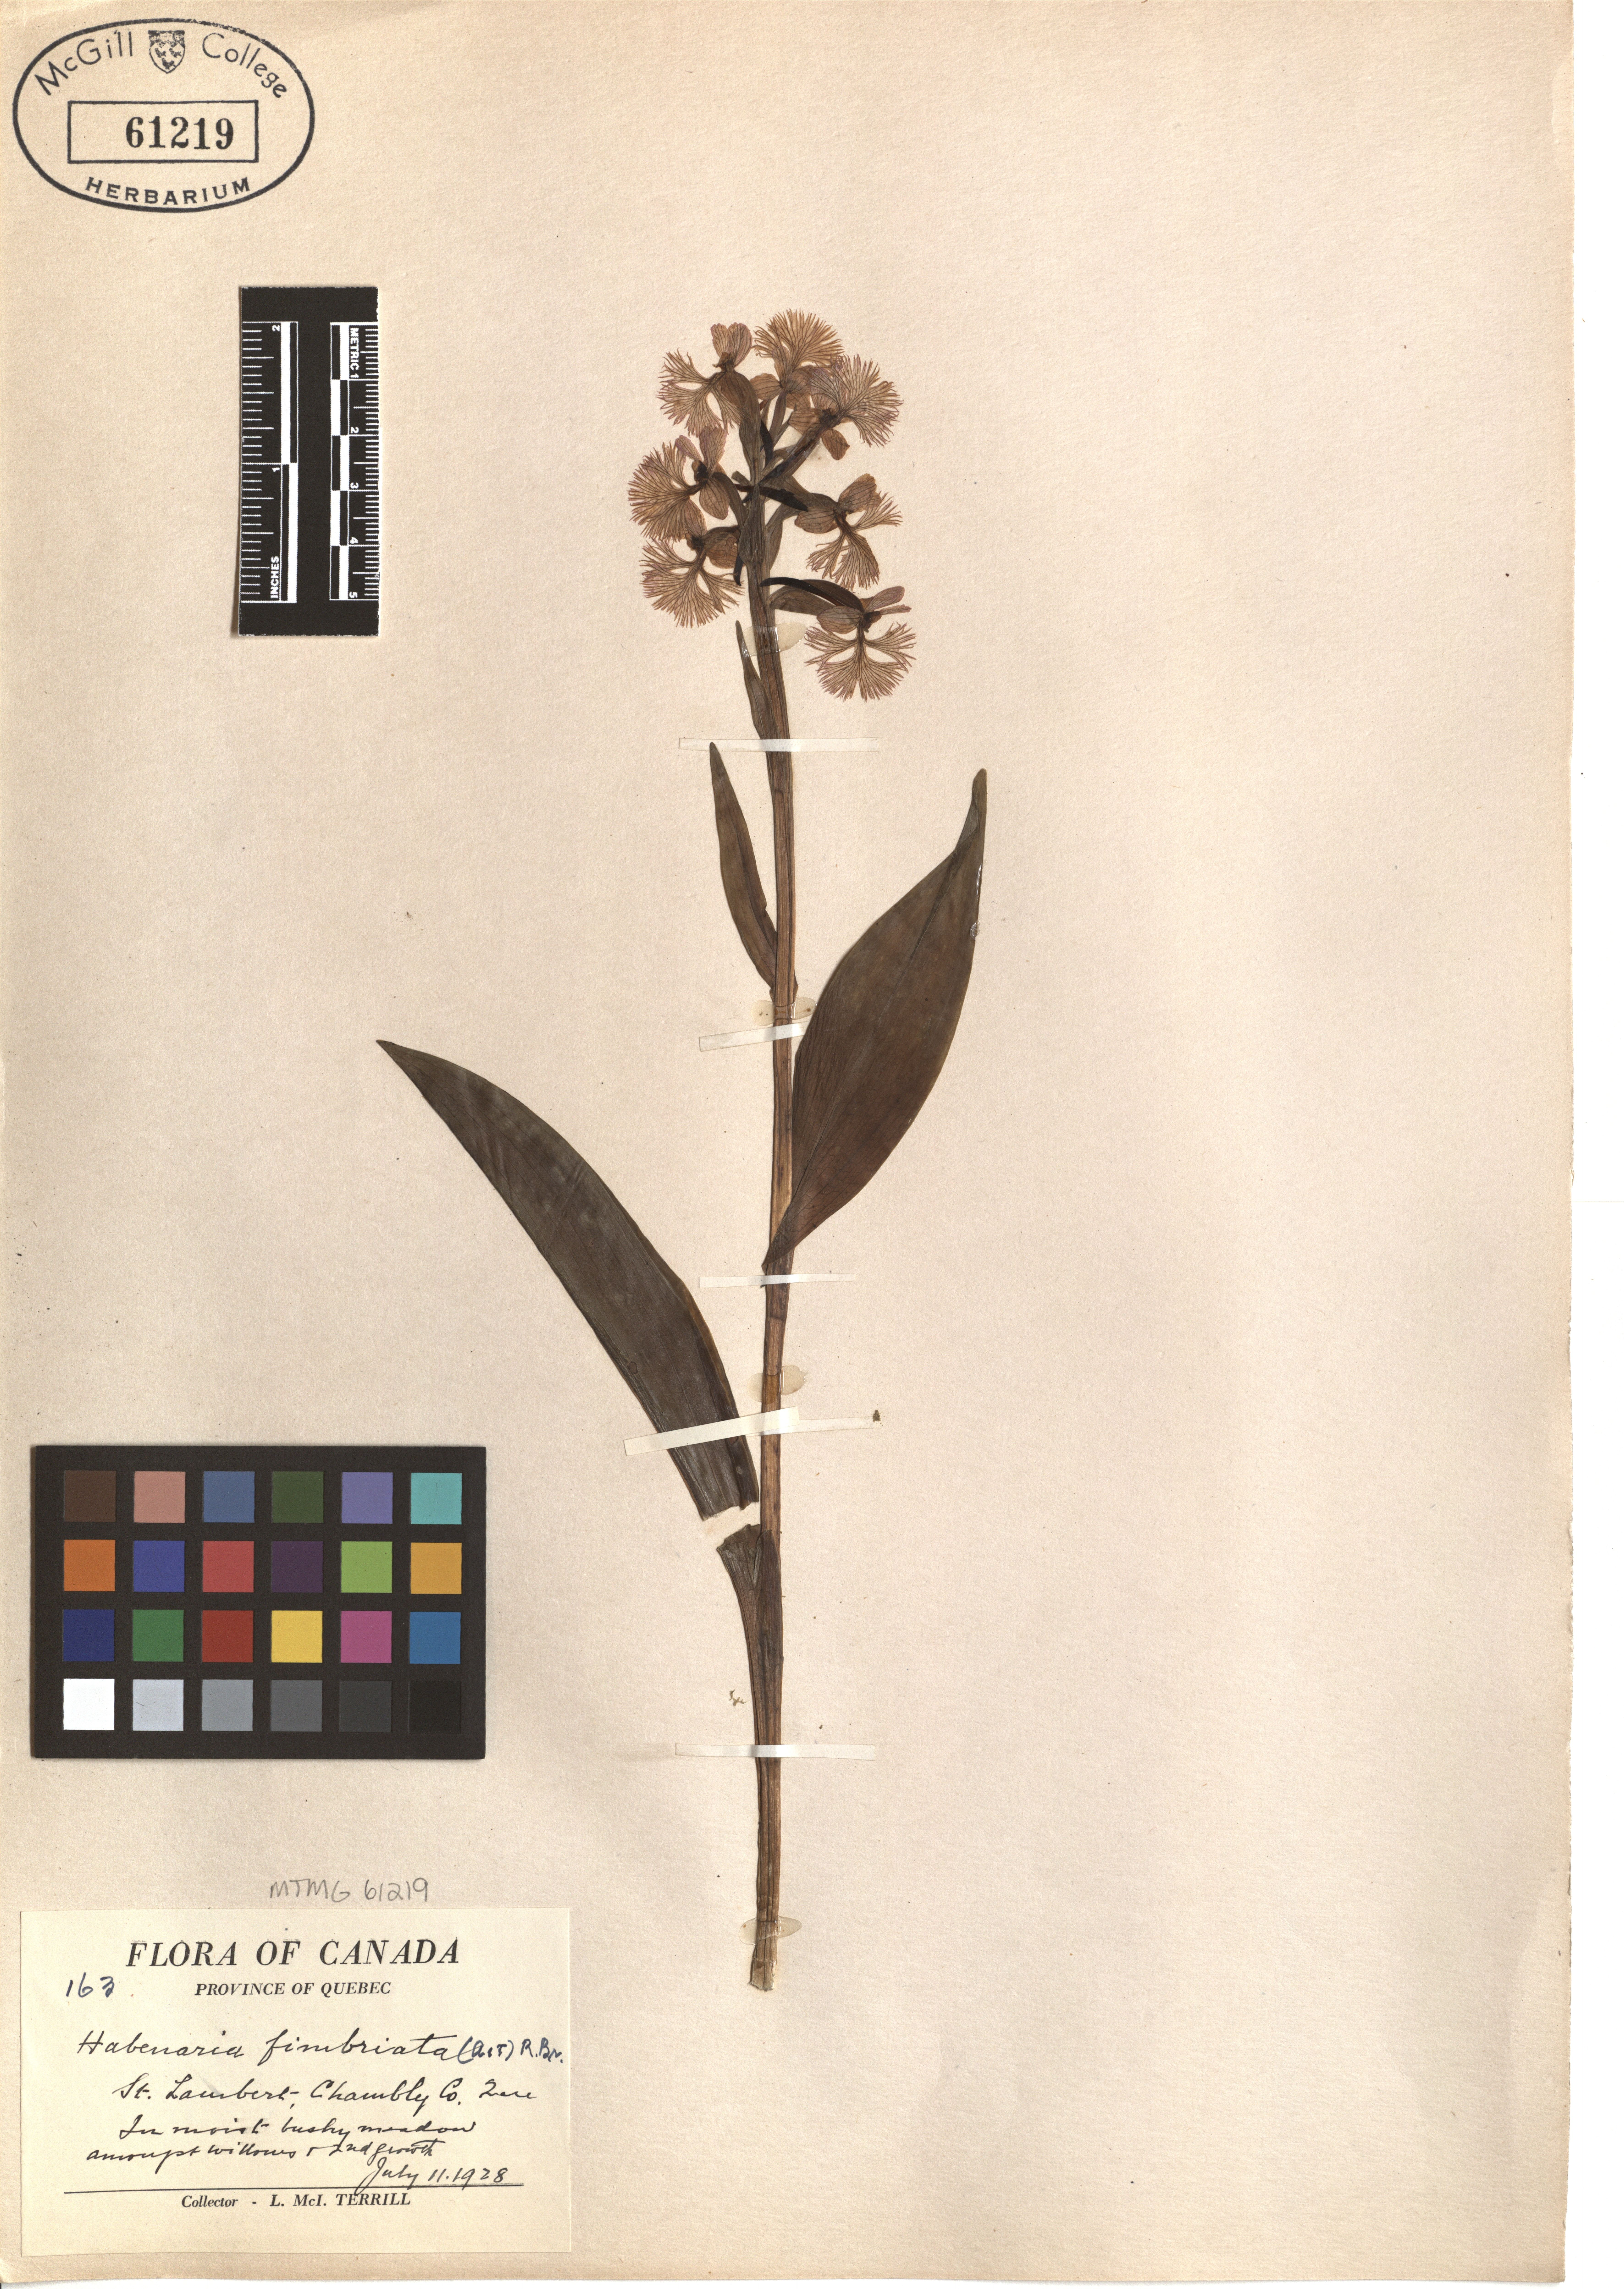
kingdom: Plantae
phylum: Tracheophyta
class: Liliopsida
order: Asparagales
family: Orchidaceae
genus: Platanthera
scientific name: Platanthera grandiflora
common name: Greater purple fringed orchid
